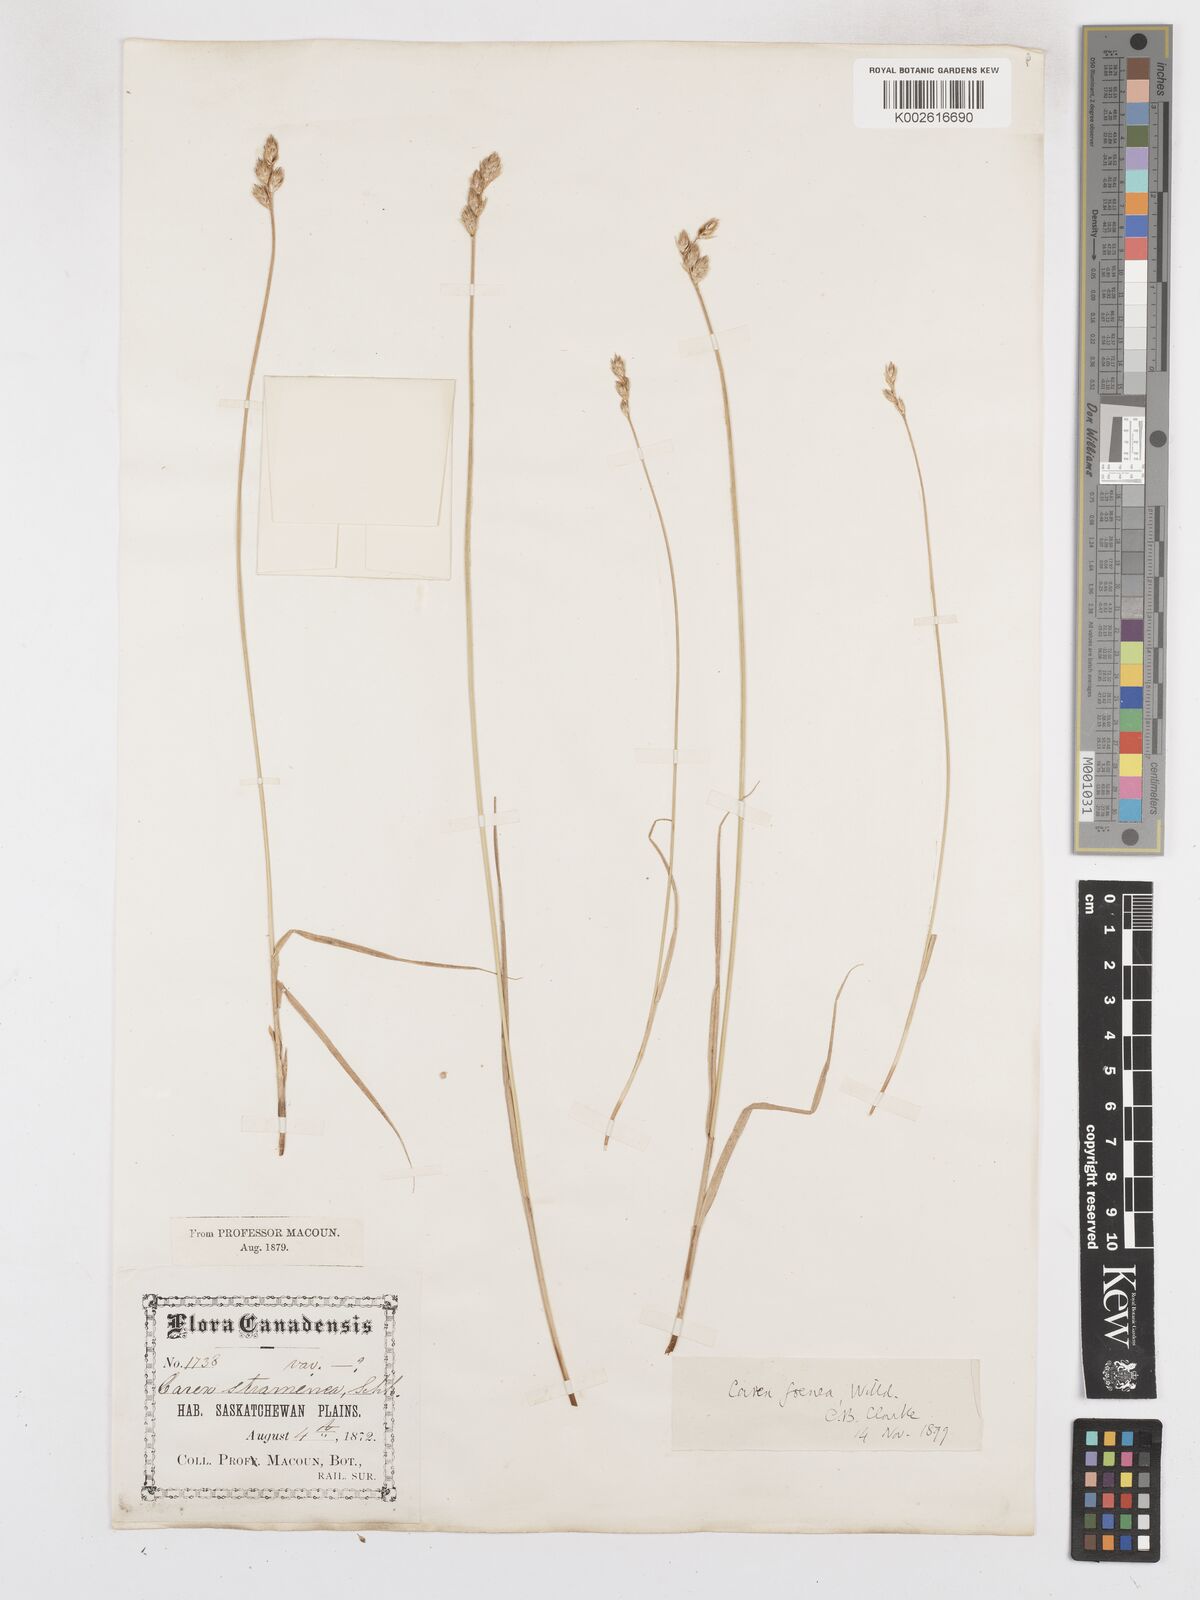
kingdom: Plantae
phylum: Tracheophyta
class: Liliopsida
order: Poales
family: Cyperaceae
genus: Carex
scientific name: Carex argyrantha
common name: Silvery-flowered sedge
